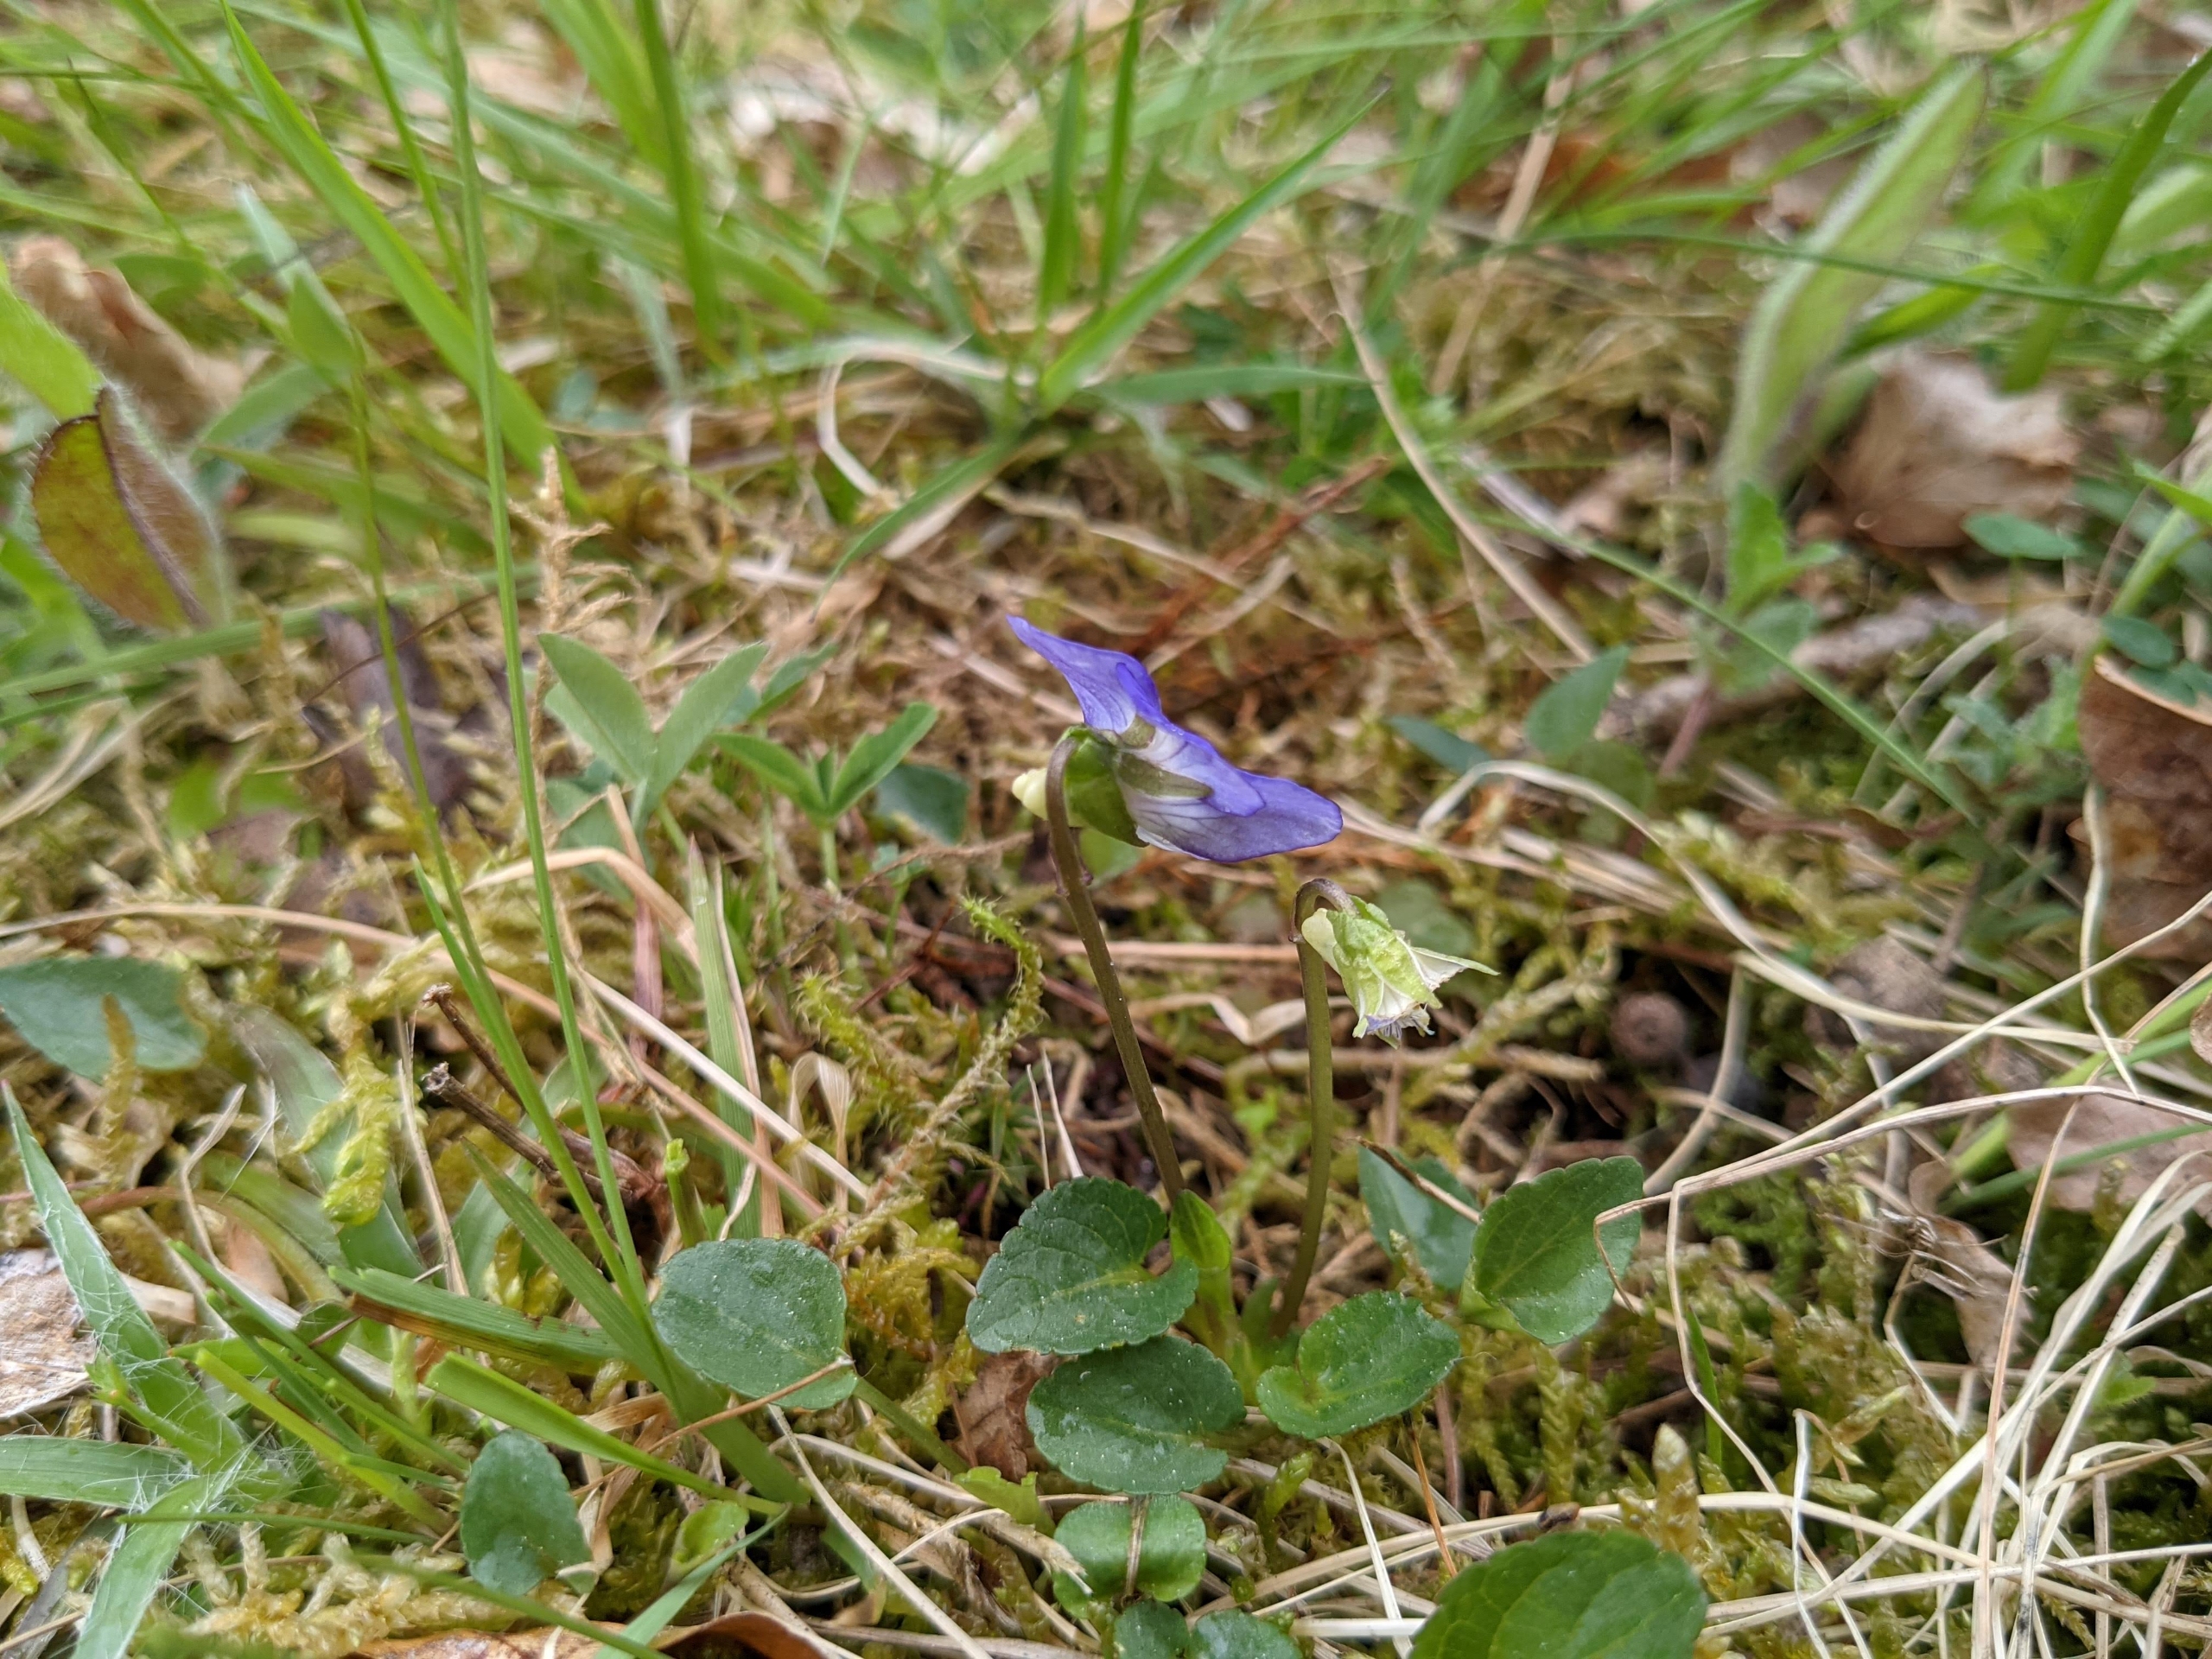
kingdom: Plantae
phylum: Tracheophyta
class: Magnoliopsida
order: Malpighiales
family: Violaceae
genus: Viola
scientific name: Viola canina
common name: Hunde-viol
